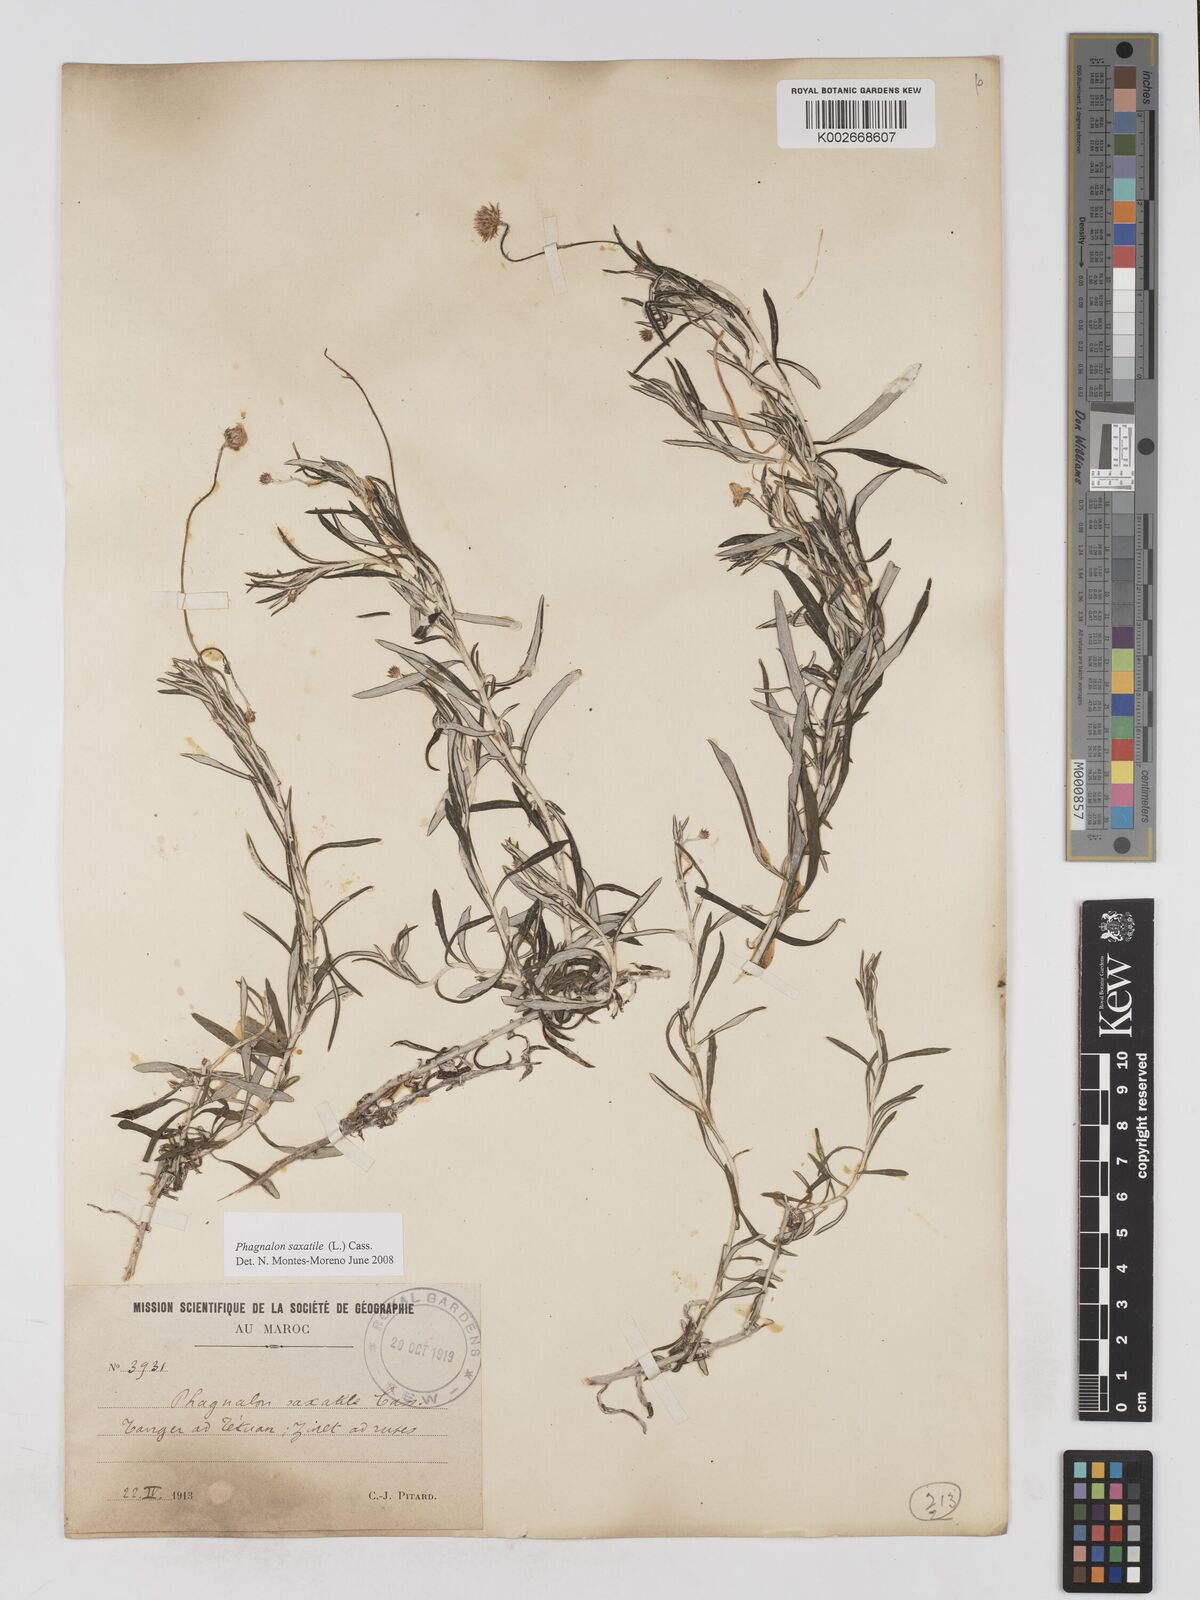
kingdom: Plantae
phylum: Tracheophyta
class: Magnoliopsida
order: Asterales
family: Asteraceae
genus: Phagnalon
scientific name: Phagnalon saxatile
